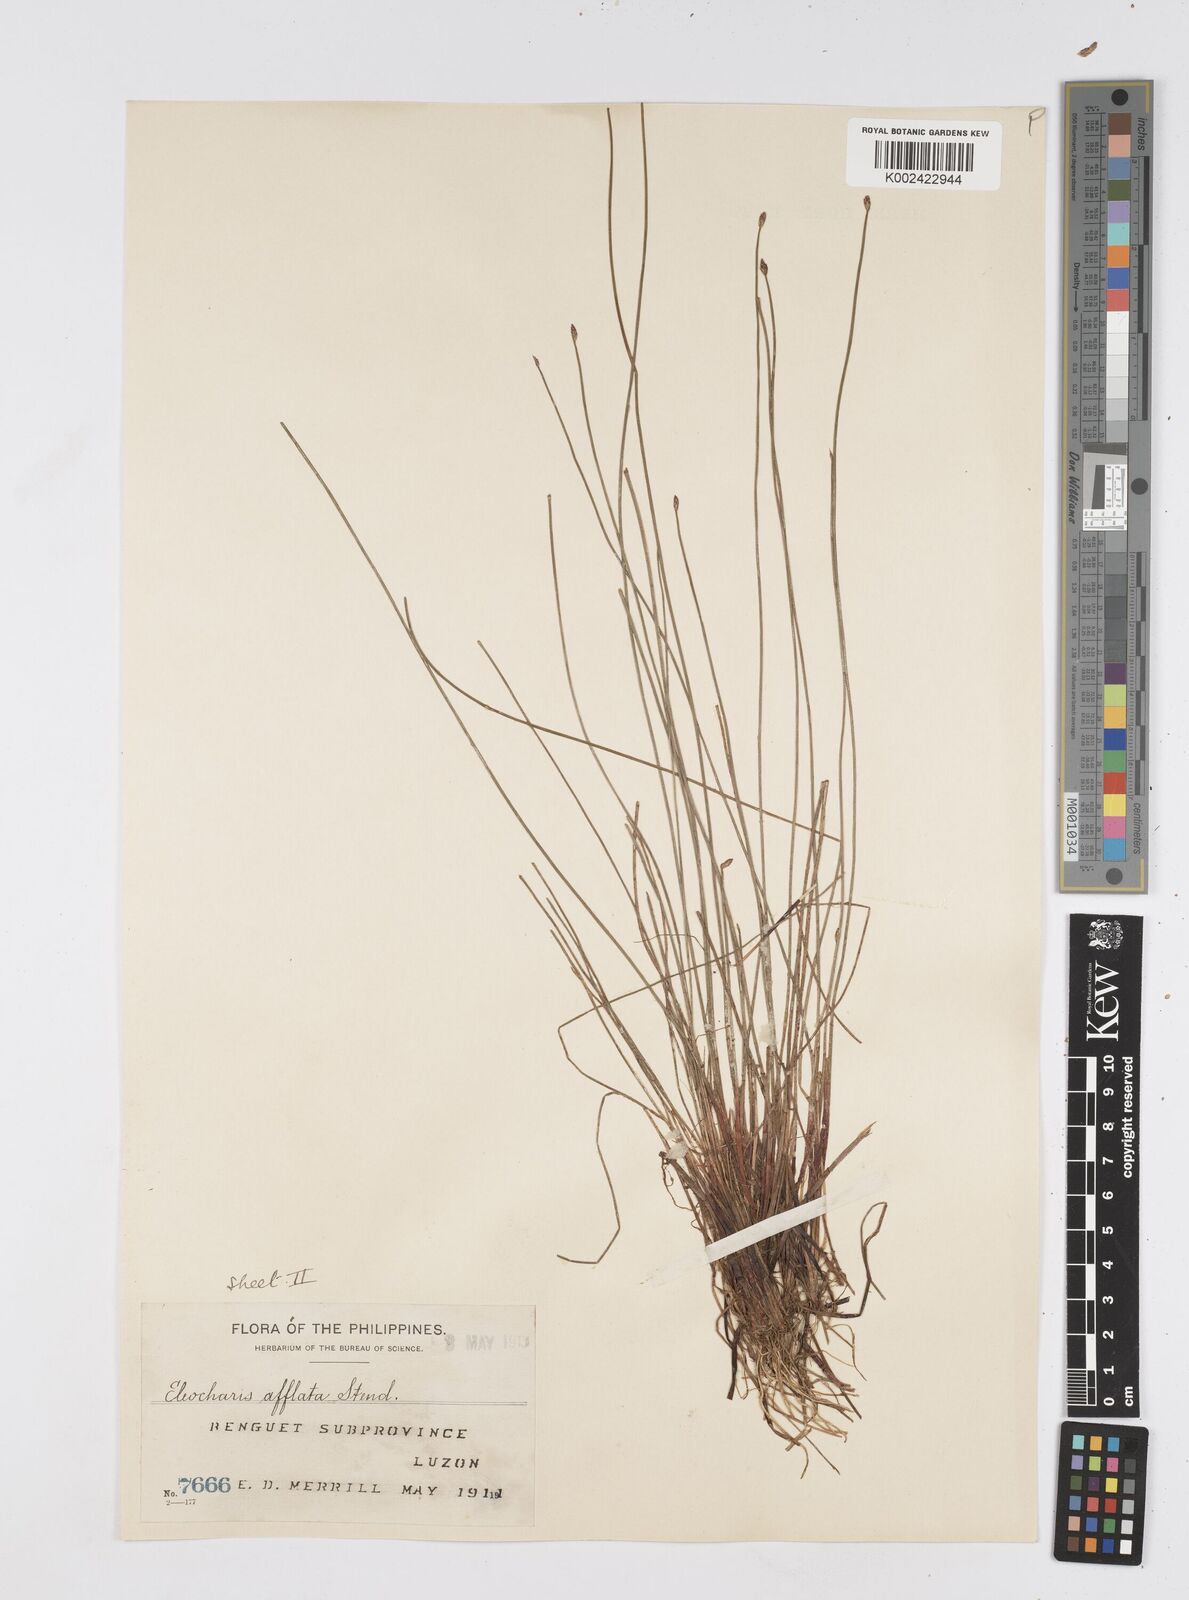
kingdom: Plantae
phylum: Tracheophyta
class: Liliopsida
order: Poales
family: Cyperaceae
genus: Eleocharis
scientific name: Eleocharis congesta
